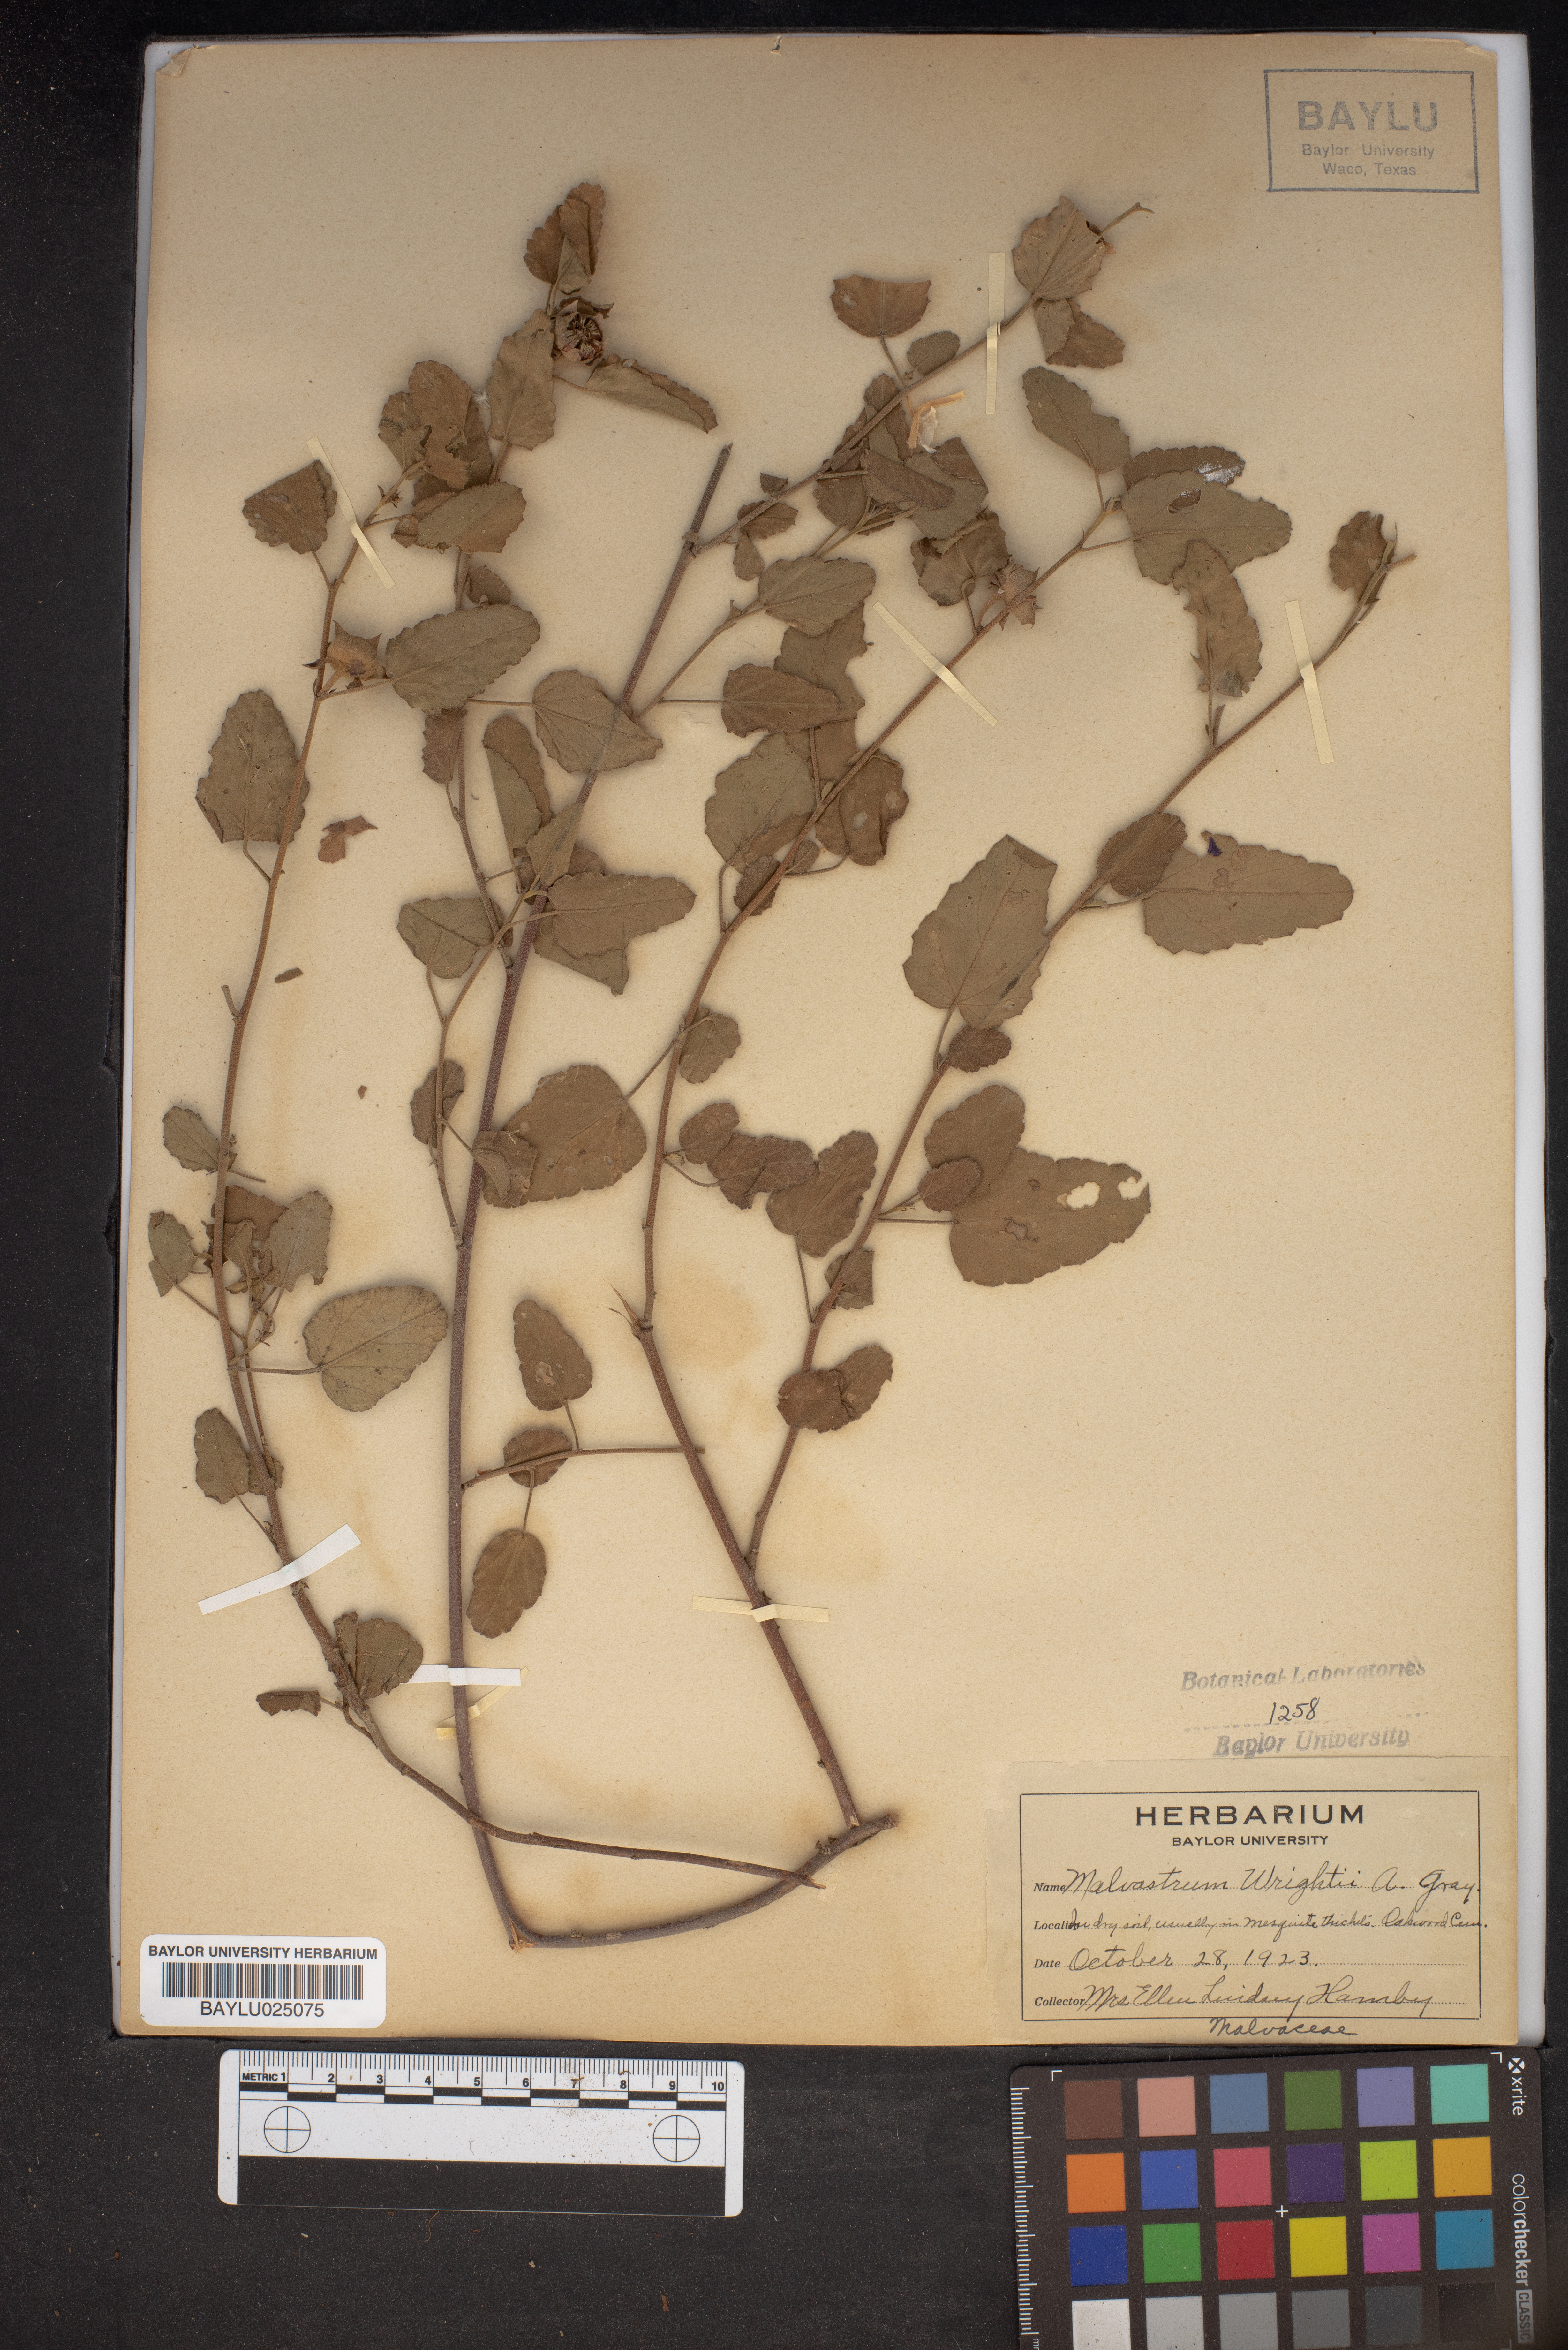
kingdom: Plantae
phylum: Tracheophyta
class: Magnoliopsida
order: Malvales
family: Malvaceae
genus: Malvastrum
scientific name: Malvastrum aurantiacum
